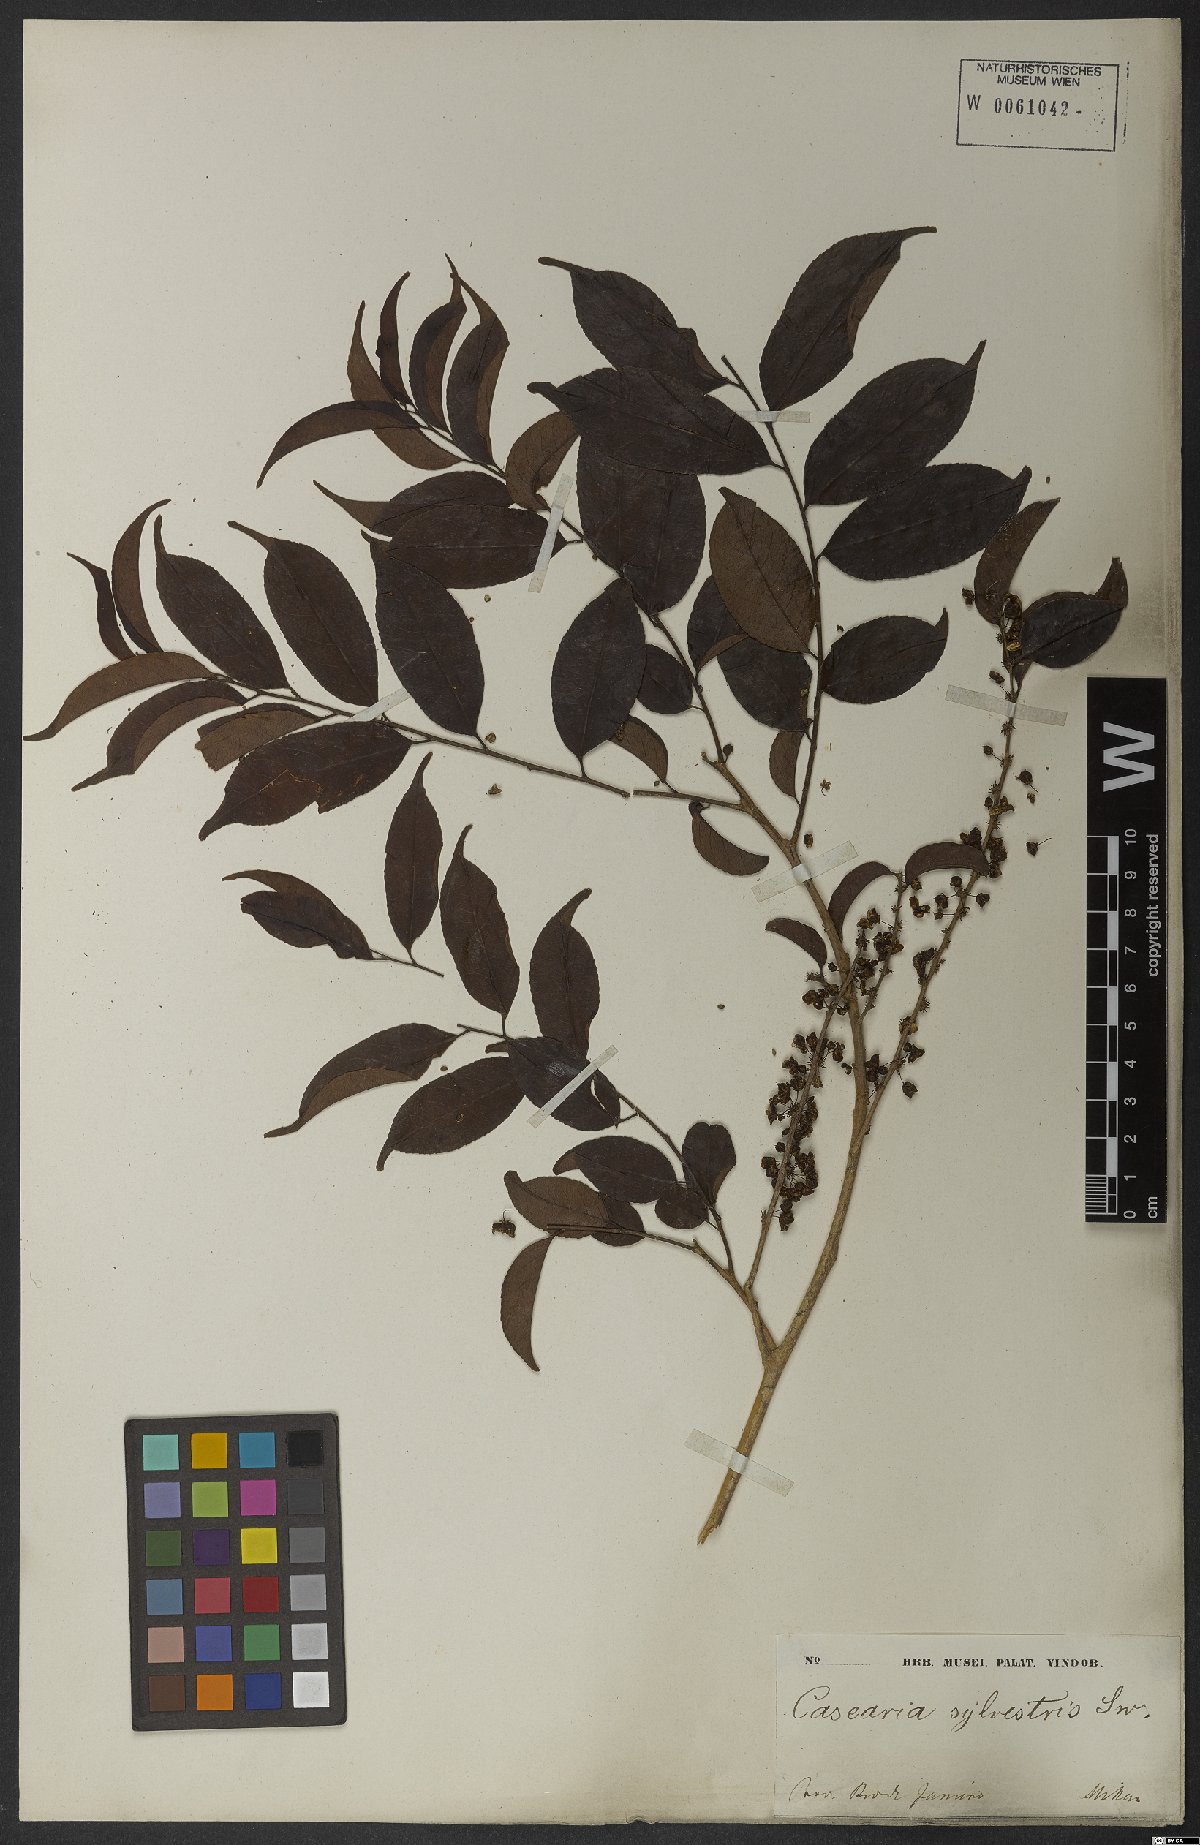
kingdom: Plantae
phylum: Tracheophyta
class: Magnoliopsida
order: Malpighiales
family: Salicaceae
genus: Casearia
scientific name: Casearia sylvestris
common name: Wild sage
